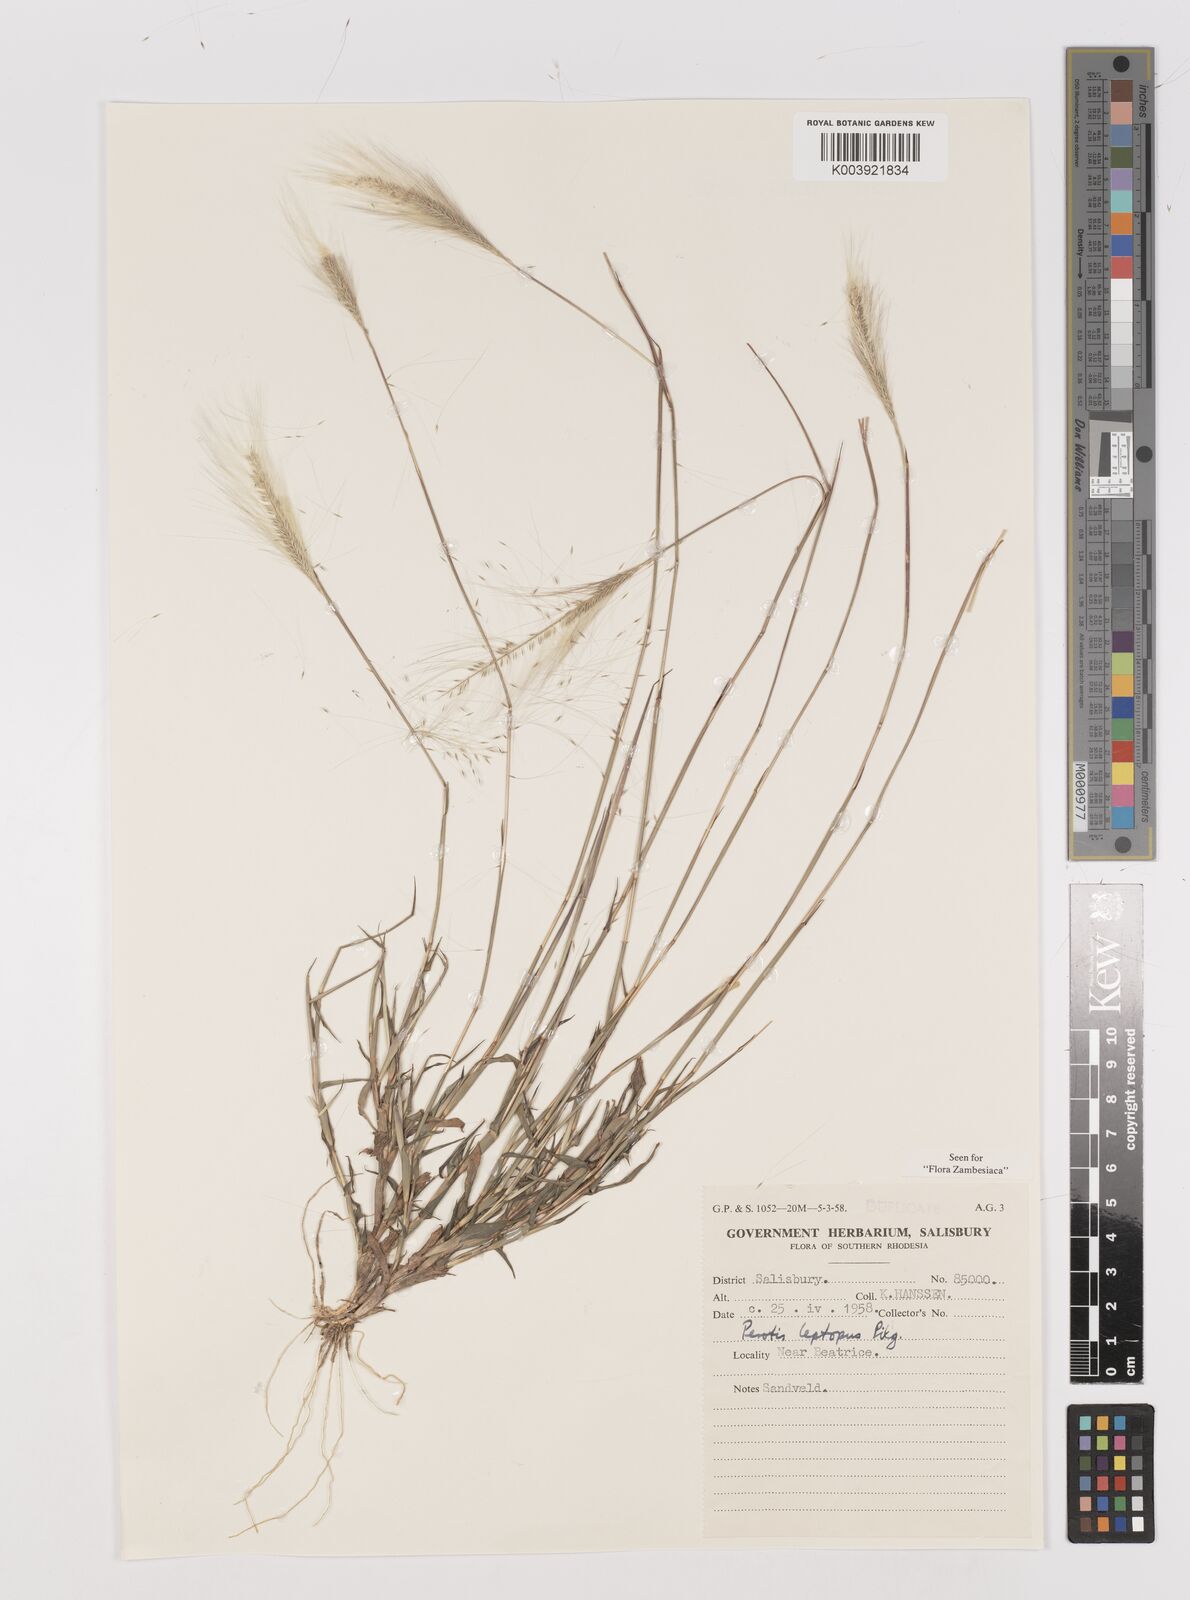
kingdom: Plantae
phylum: Tracheophyta
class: Liliopsida
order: Poales
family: Poaceae
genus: Perotis
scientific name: Perotis leptopus
